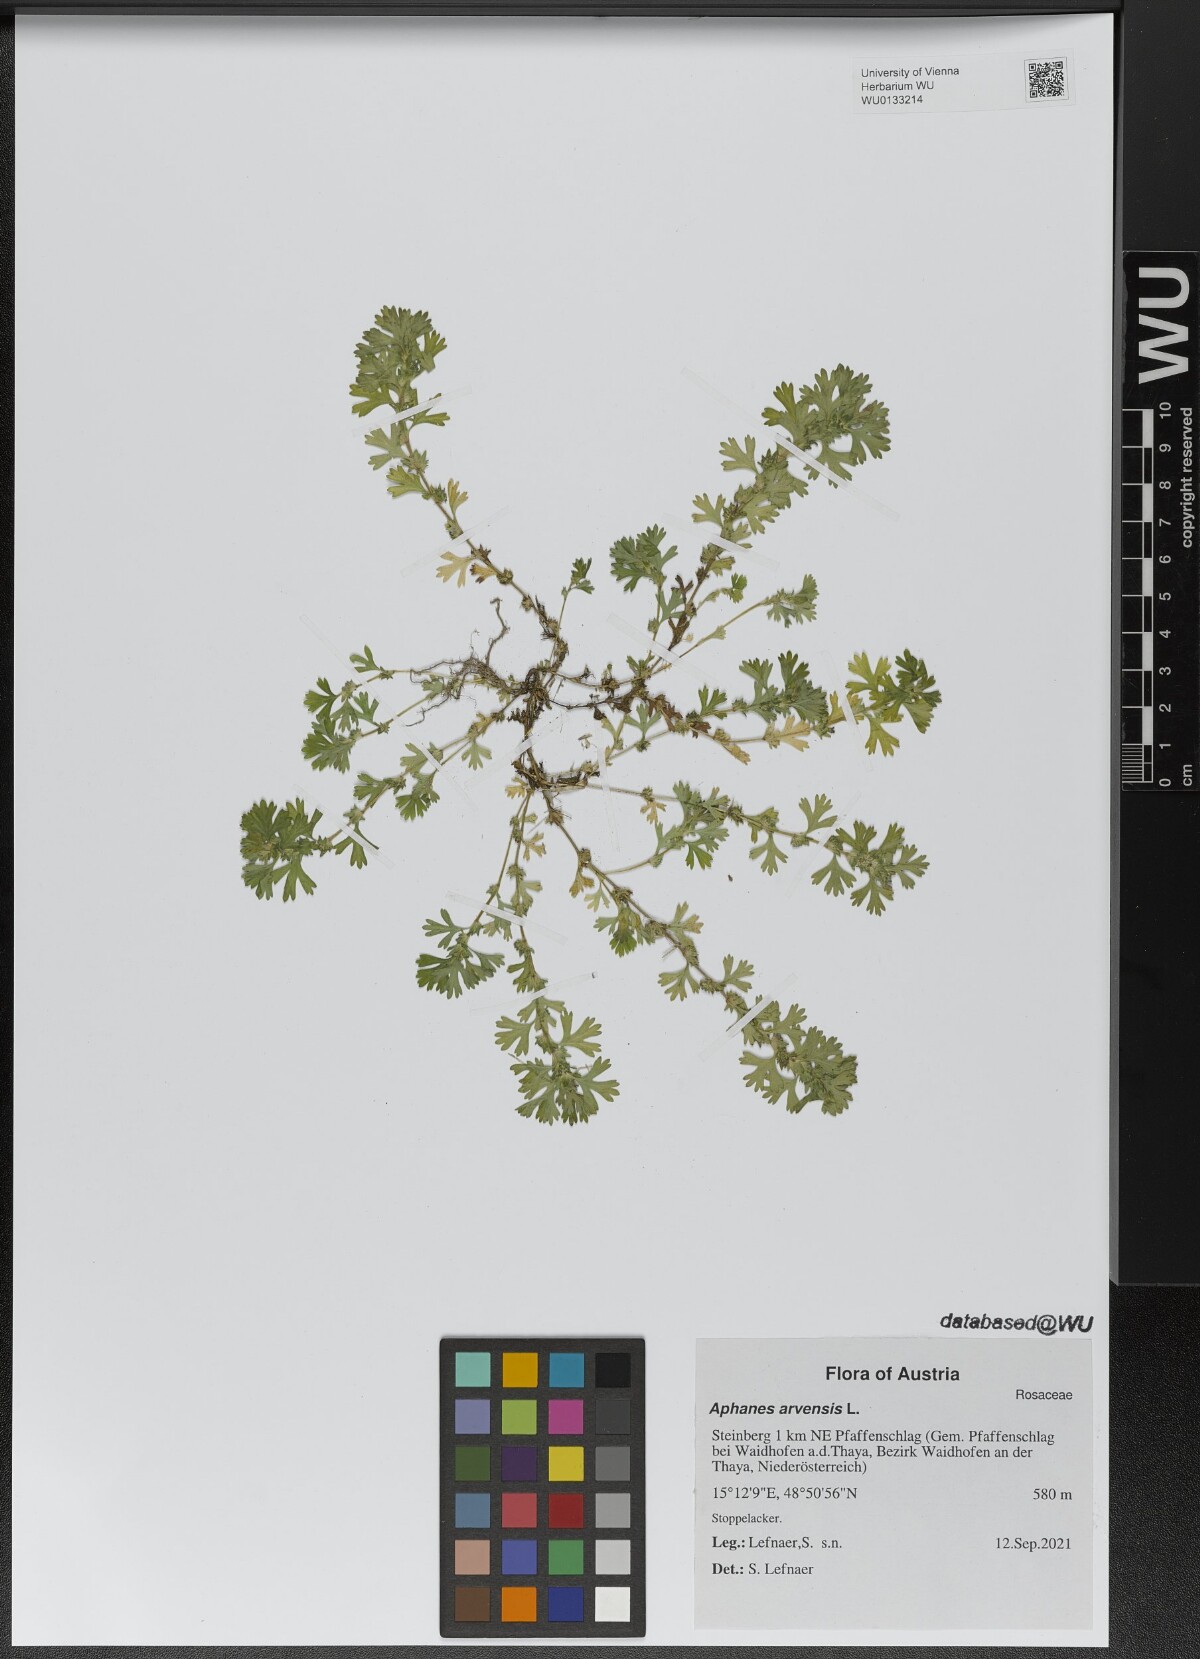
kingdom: Plantae
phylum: Tracheophyta
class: Magnoliopsida
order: Rosales
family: Rosaceae
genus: Aphanes
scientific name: Aphanes arvensis
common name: Parsley-piert
